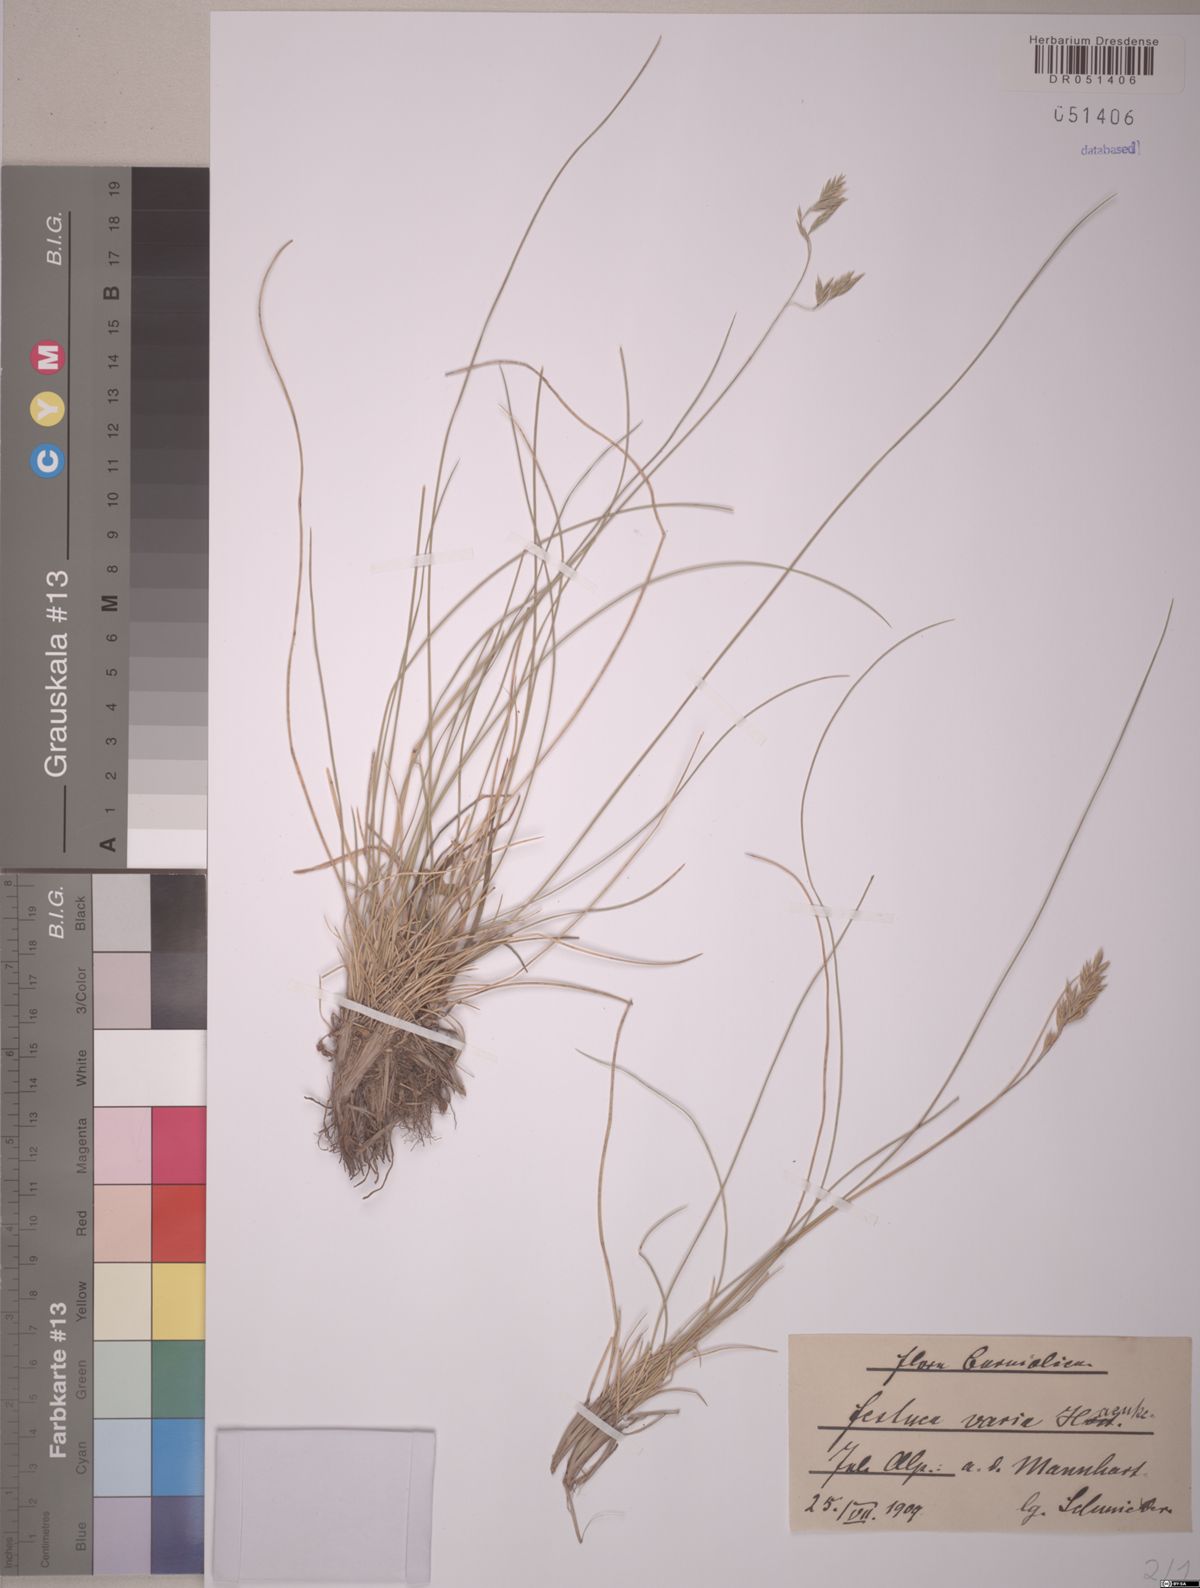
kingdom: Plantae
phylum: Tracheophyta
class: Liliopsida
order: Poales
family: Poaceae
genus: Festuca
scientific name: Festuca varia
